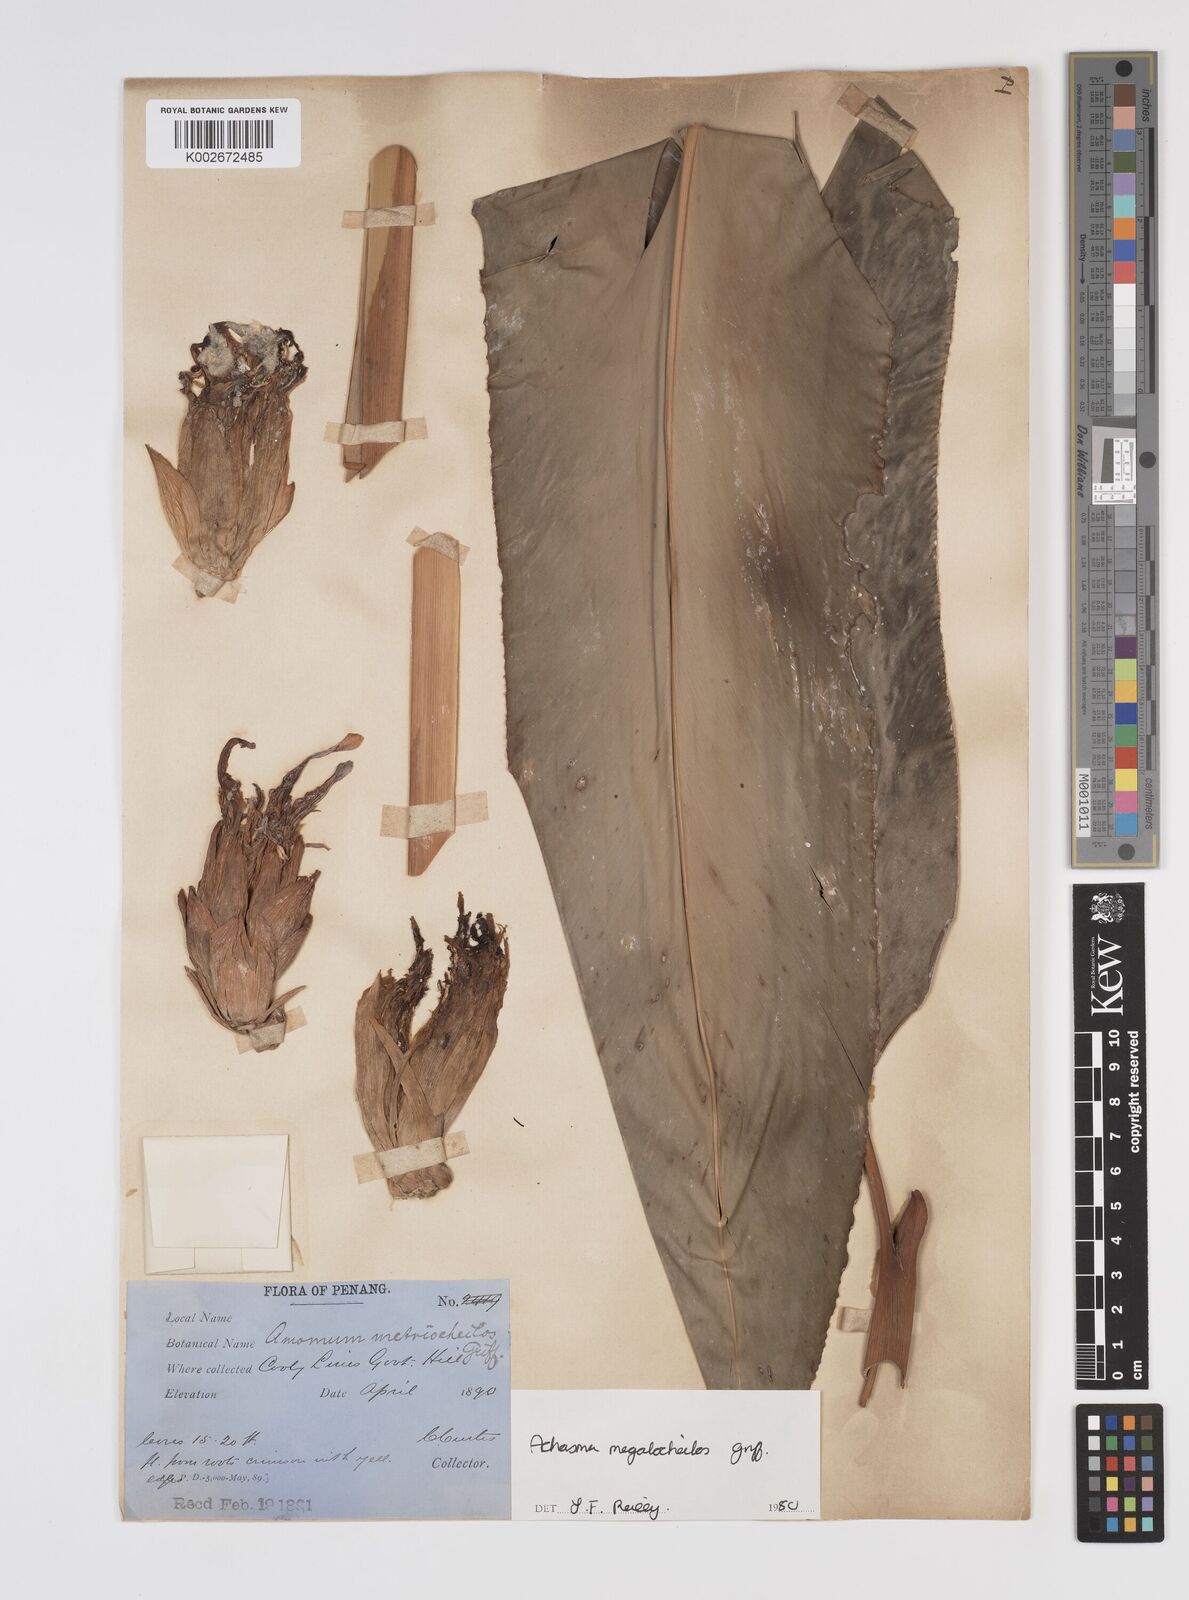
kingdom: Plantae
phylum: Tracheophyta
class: Liliopsida
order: Zingiberales
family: Zingiberaceae
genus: Etlingera
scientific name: Etlingera metriocheilos
